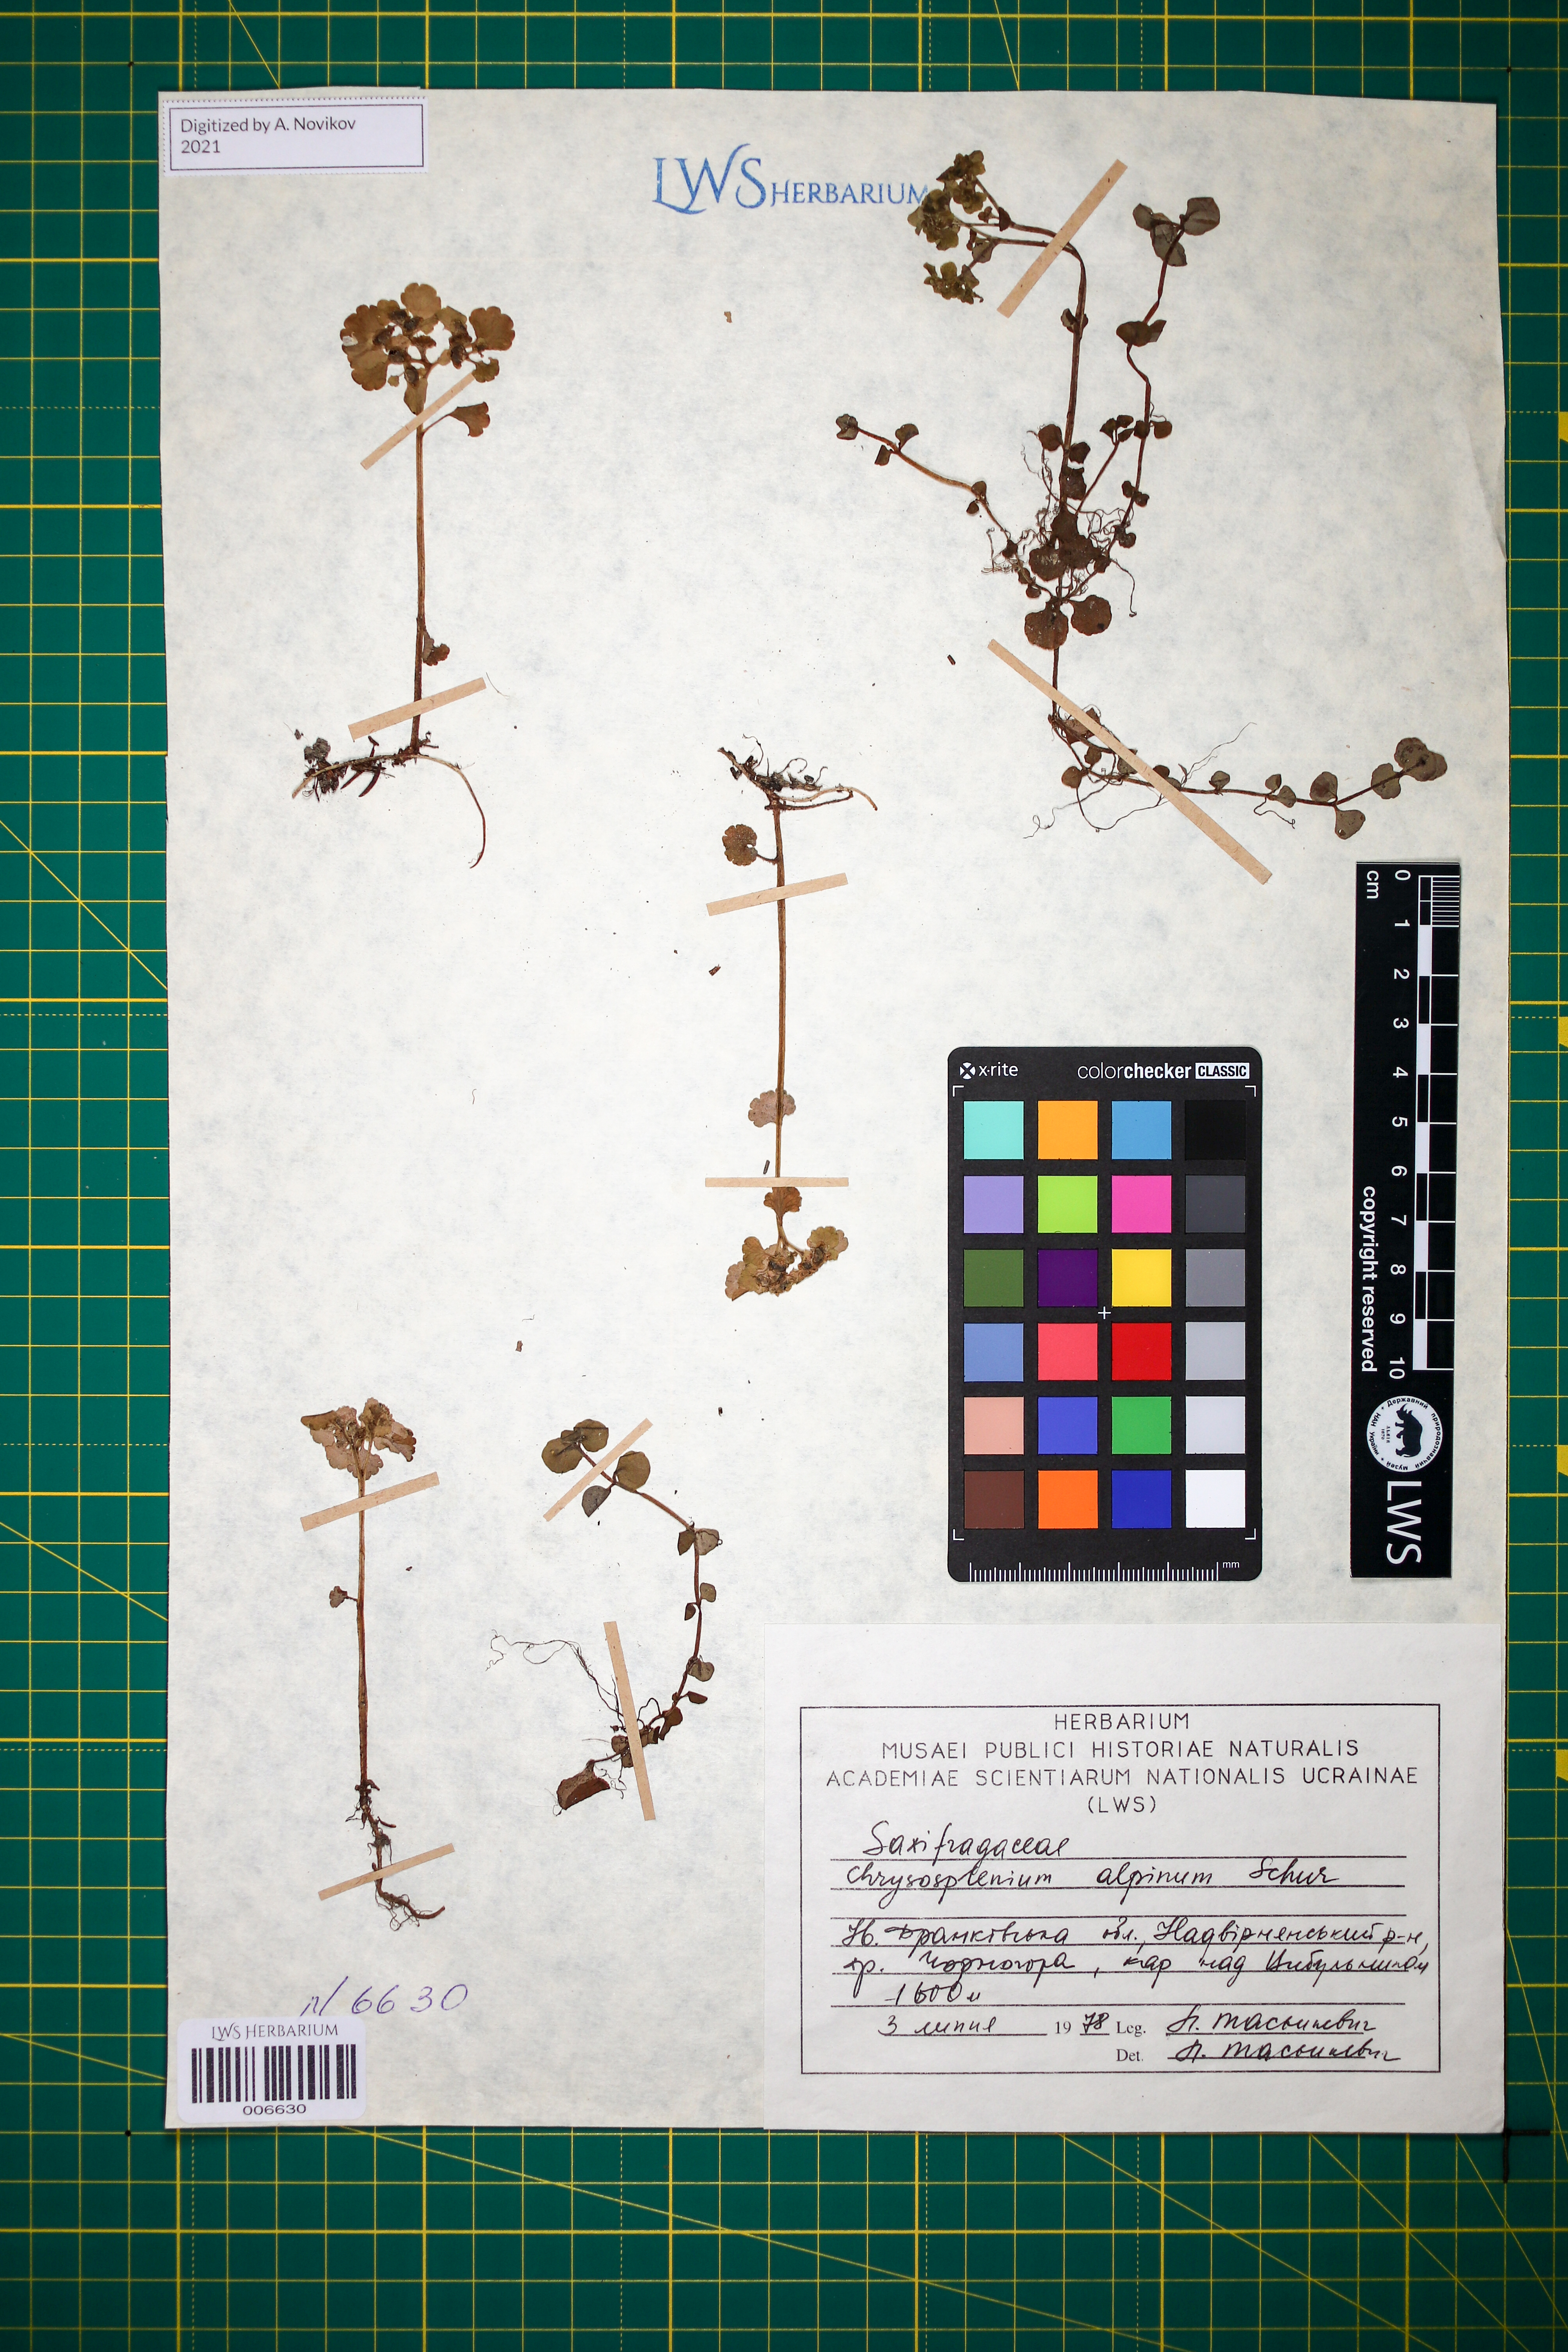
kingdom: Plantae
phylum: Tracheophyta
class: Magnoliopsida
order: Saxifragales
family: Saxifragaceae
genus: Chrysosplenium
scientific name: Chrysosplenium alpinum
